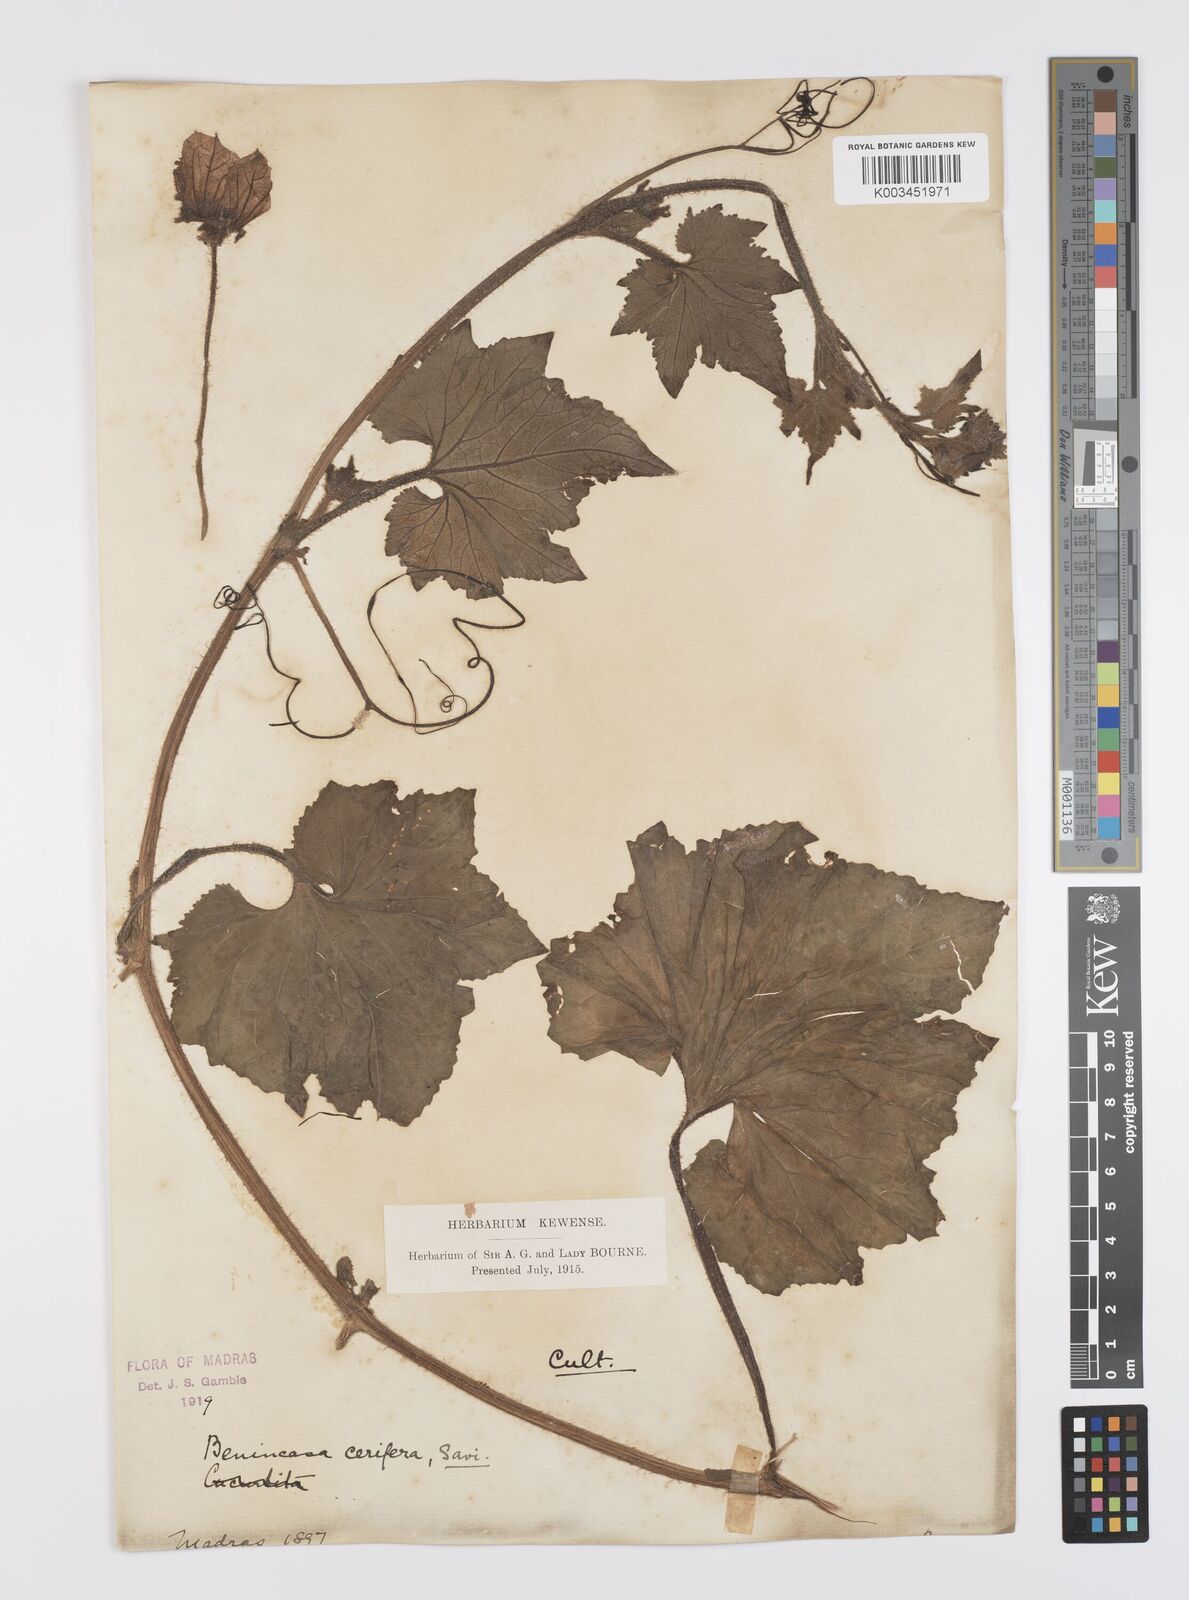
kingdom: Plantae
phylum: Tracheophyta
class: Magnoliopsida
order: Cucurbitales
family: Cucurbitaceae
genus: Benincasa
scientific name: Benincasa hispida
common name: Chinese-watermelon
